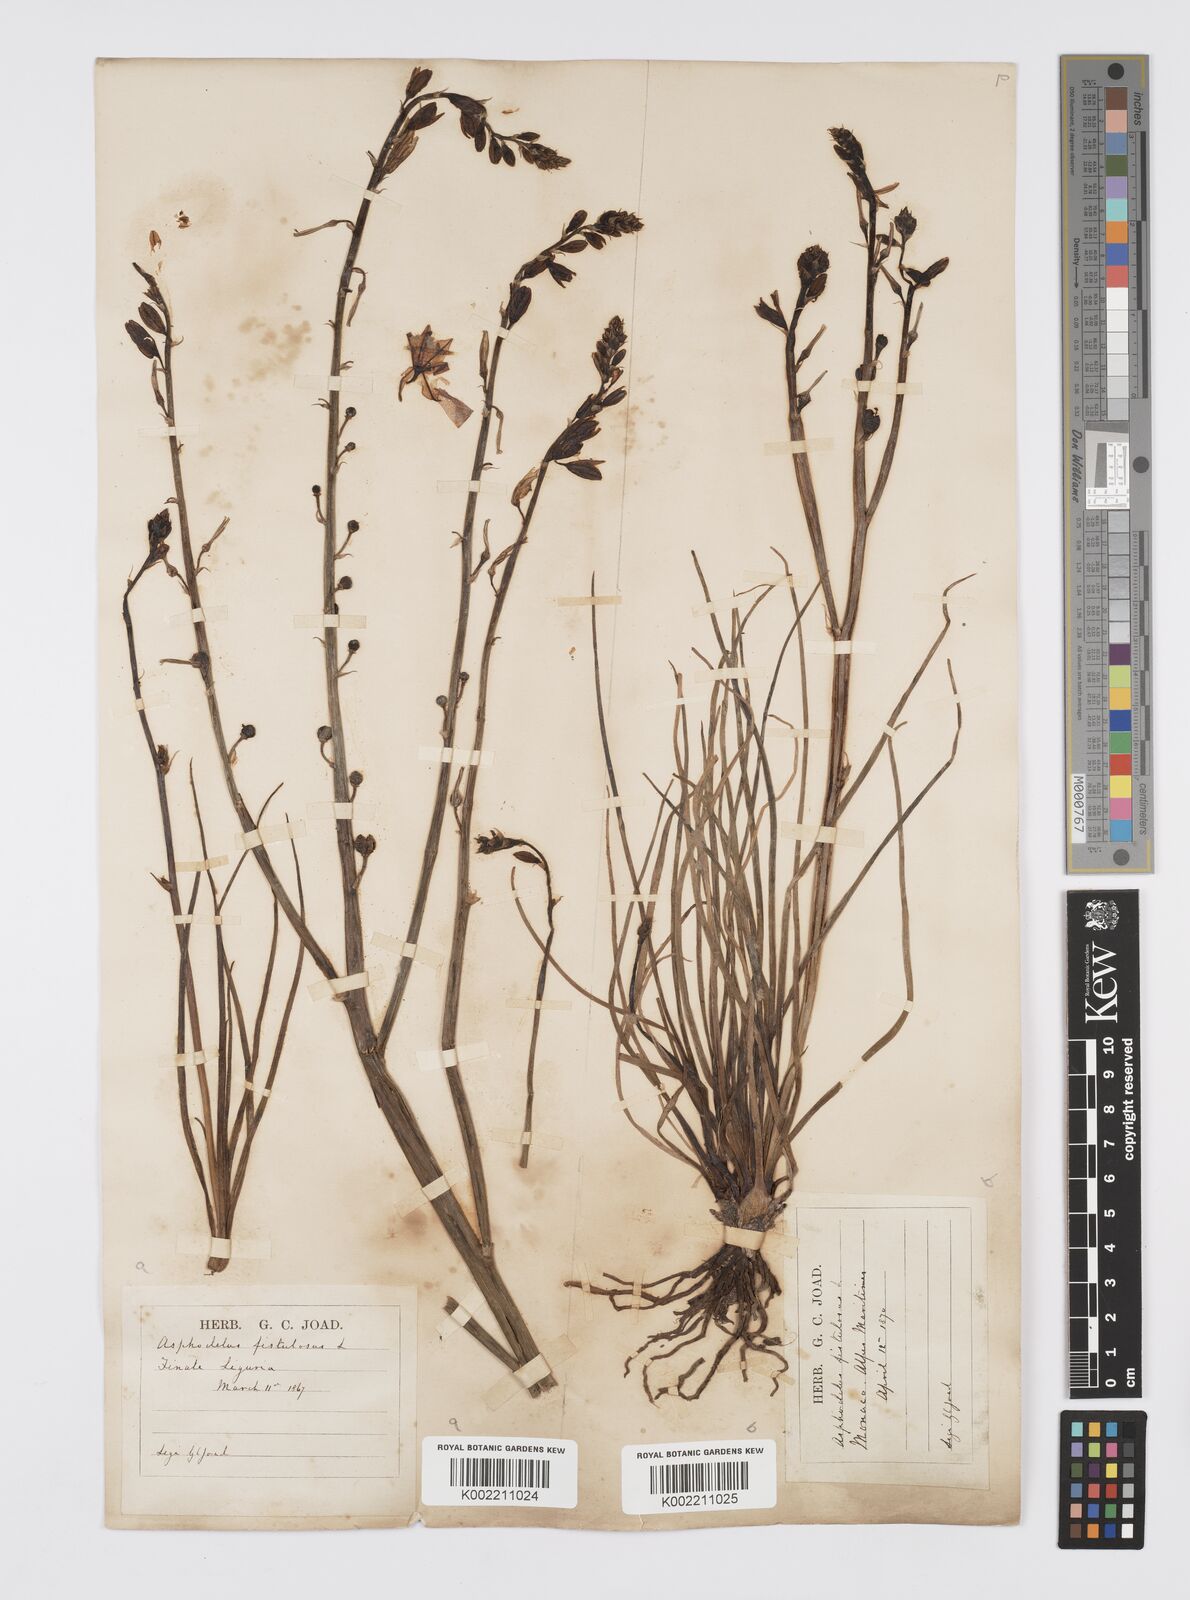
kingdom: Plantae
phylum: Tracheophyta
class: Liliopsida
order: Asparagales
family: Asphodelaceae
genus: Asphodelus
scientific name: Asphodelus fistulosus
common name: Onionweed
